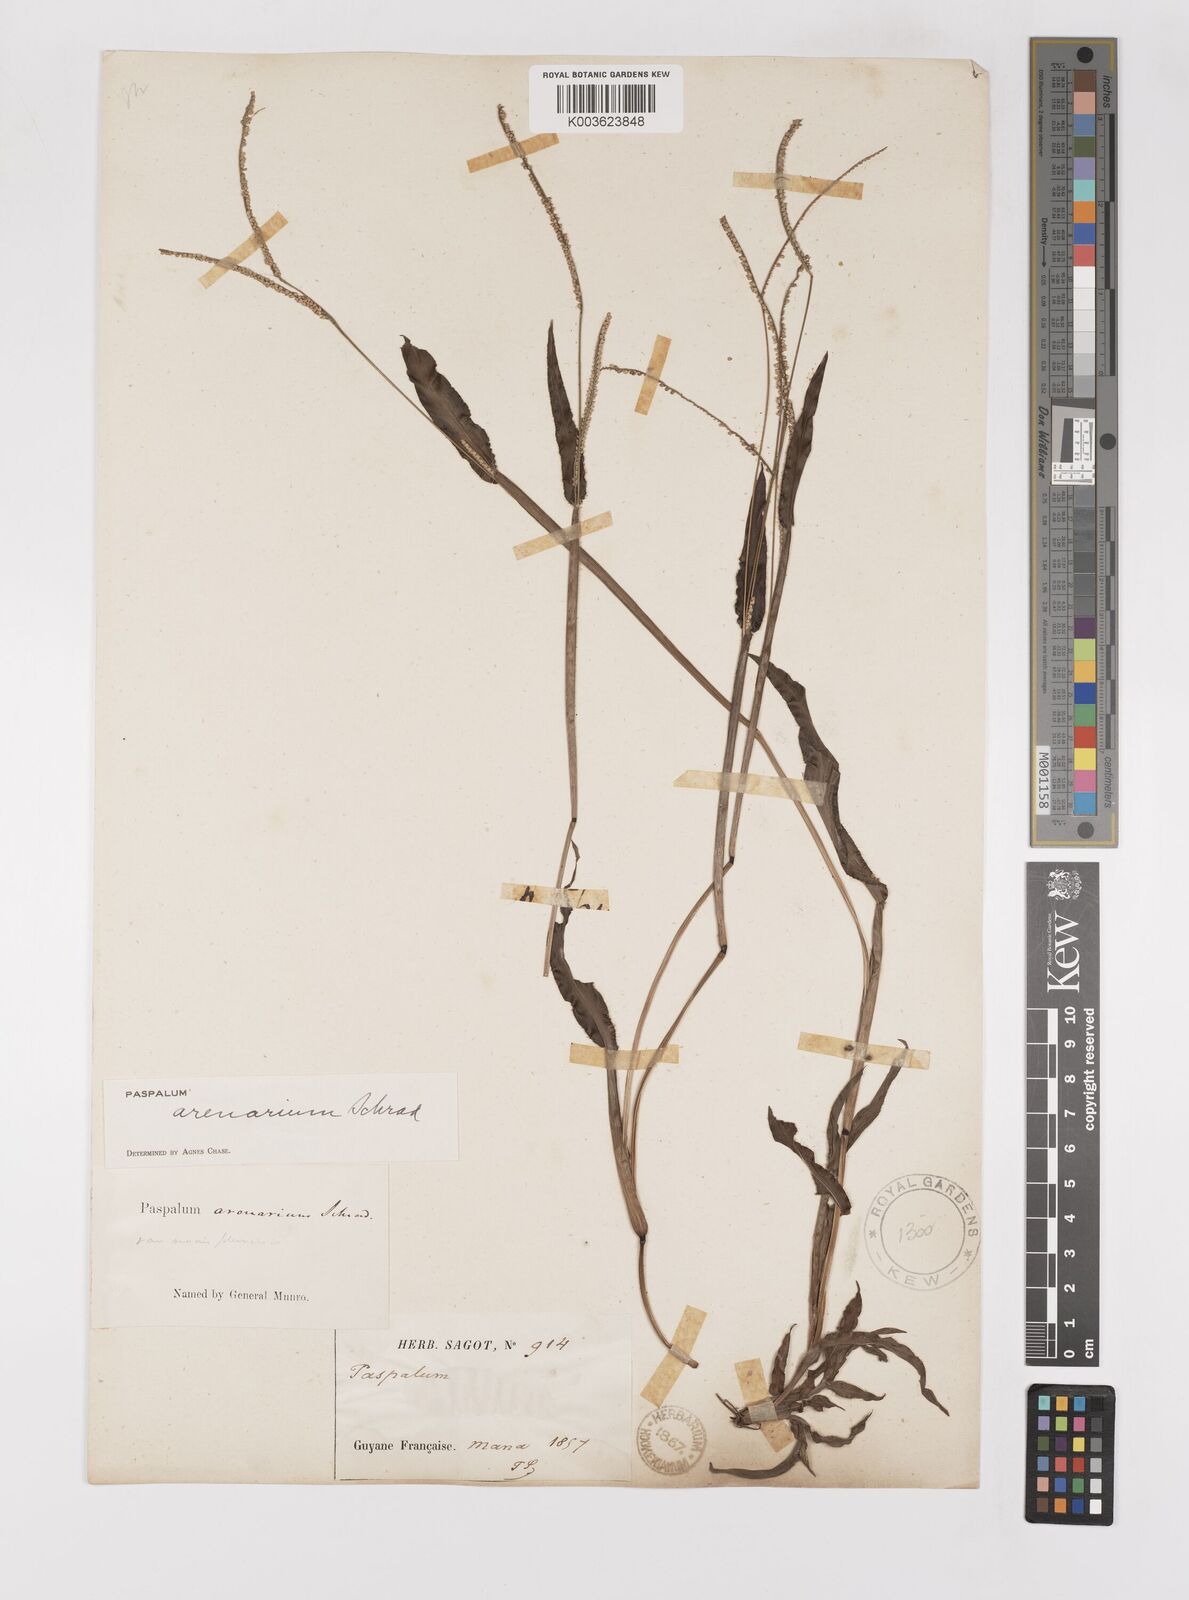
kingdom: Plantae
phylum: Tracheophyta
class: Liliopsida
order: Poales
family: Poaceae
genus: Paspalum
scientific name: Paspalum arenarium
